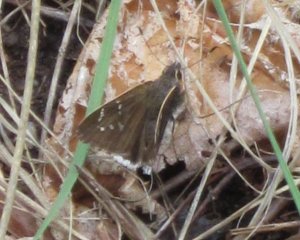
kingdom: Animalia
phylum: Arthropoda
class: Insecta
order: Lepidoptera
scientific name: Lepidoptera
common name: Butterflies
